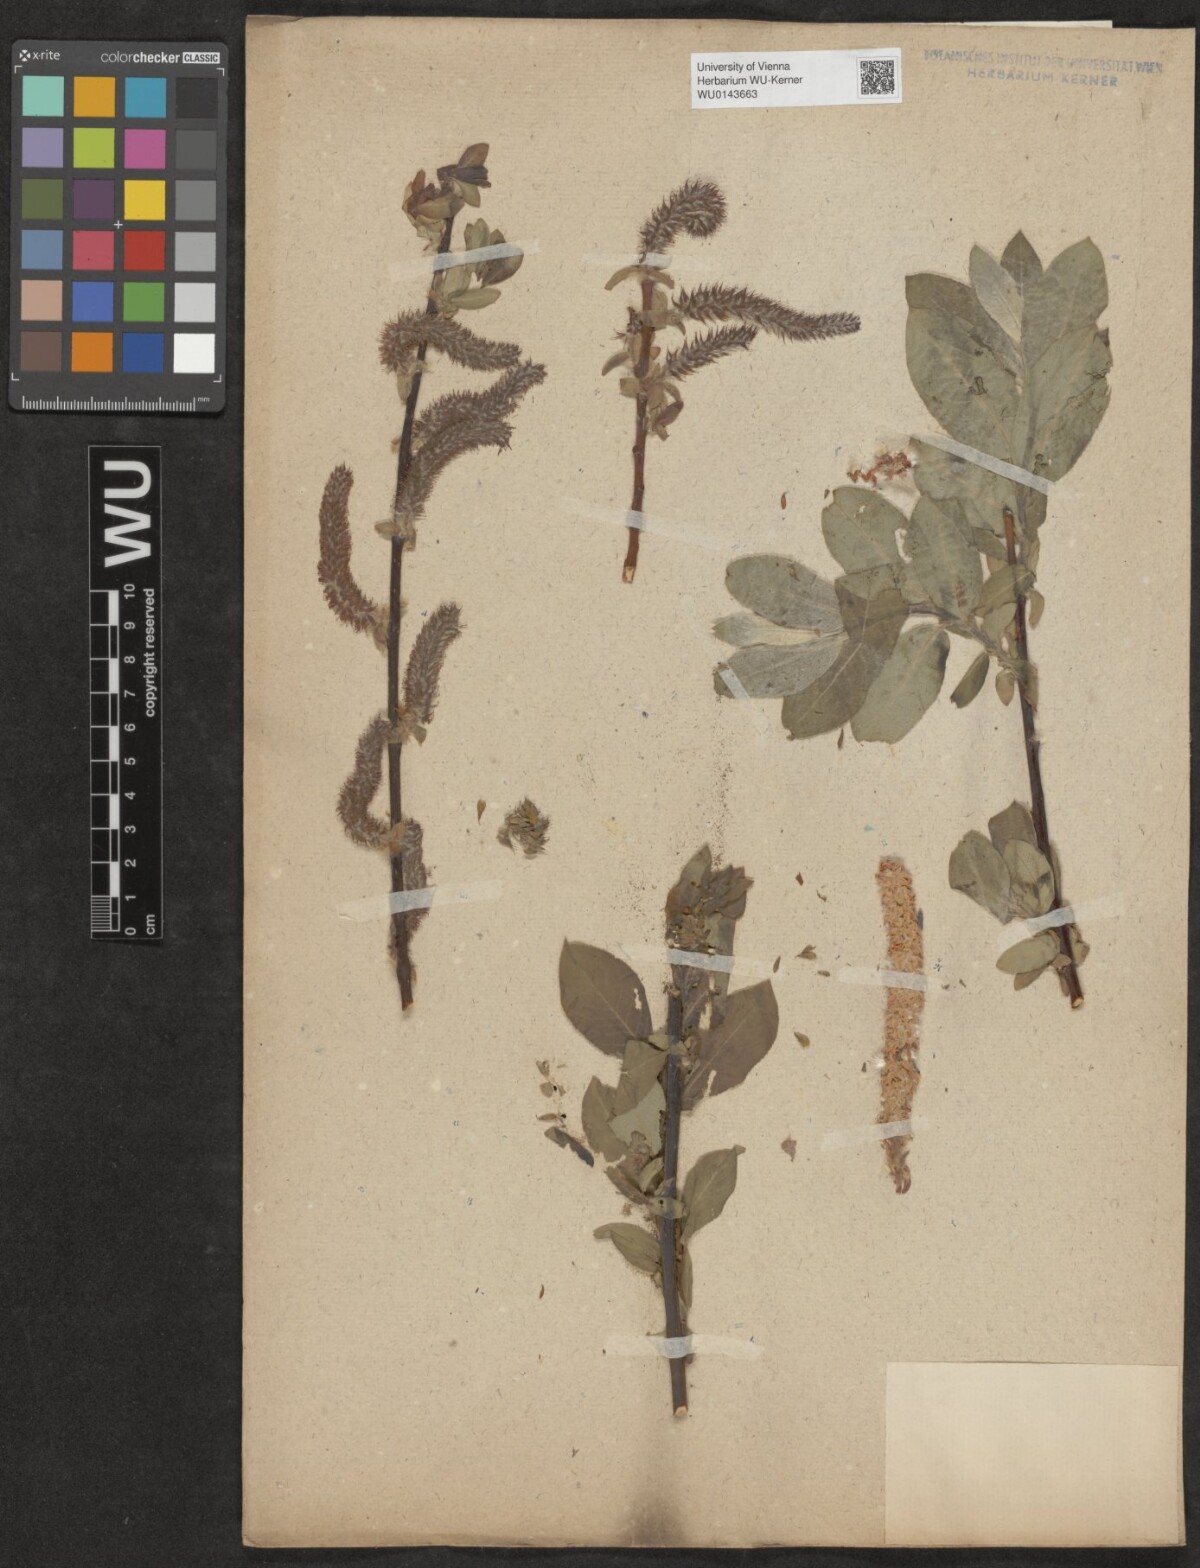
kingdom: Plantae
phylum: Tracheophyta
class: Magnoliopsida
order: Malpighiales
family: Salicaceae
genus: Salix
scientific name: Salix
